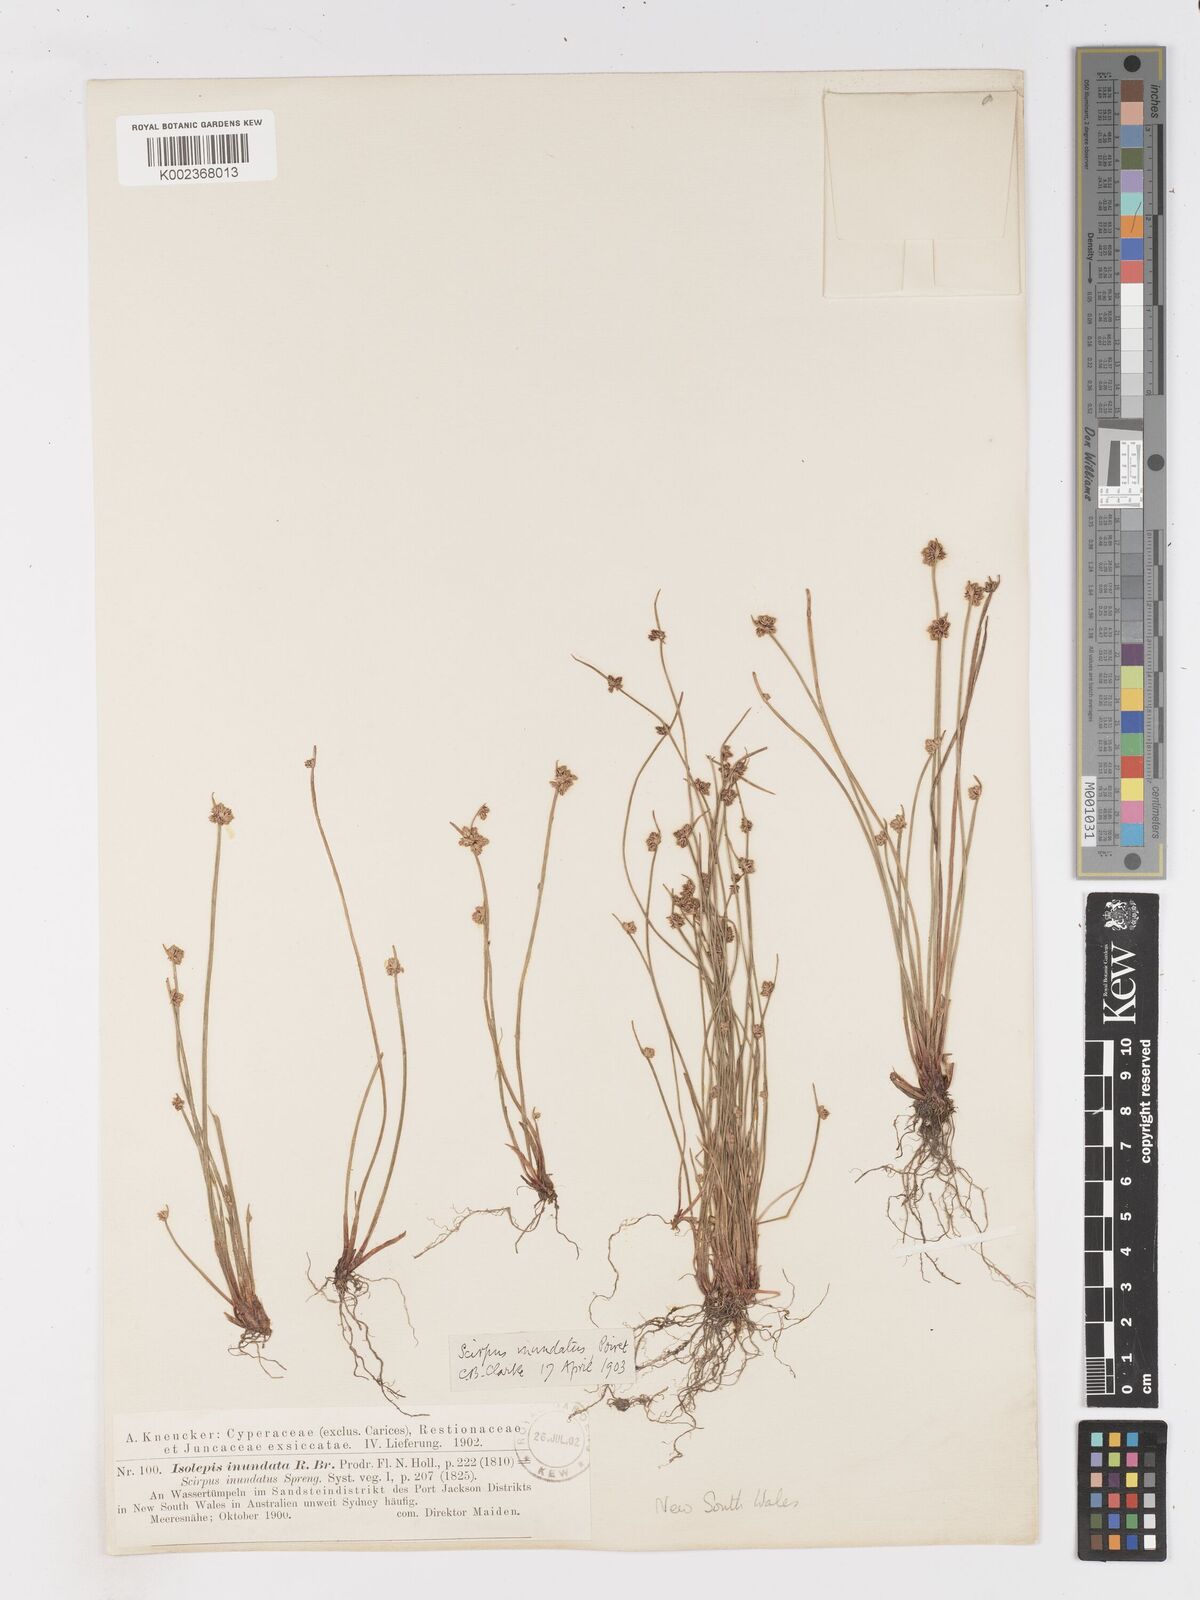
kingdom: Plantae
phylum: Tracheophyta
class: Liliopsida
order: Poales
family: Cyperaceae
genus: Isolepis
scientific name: Isolepis inundata
